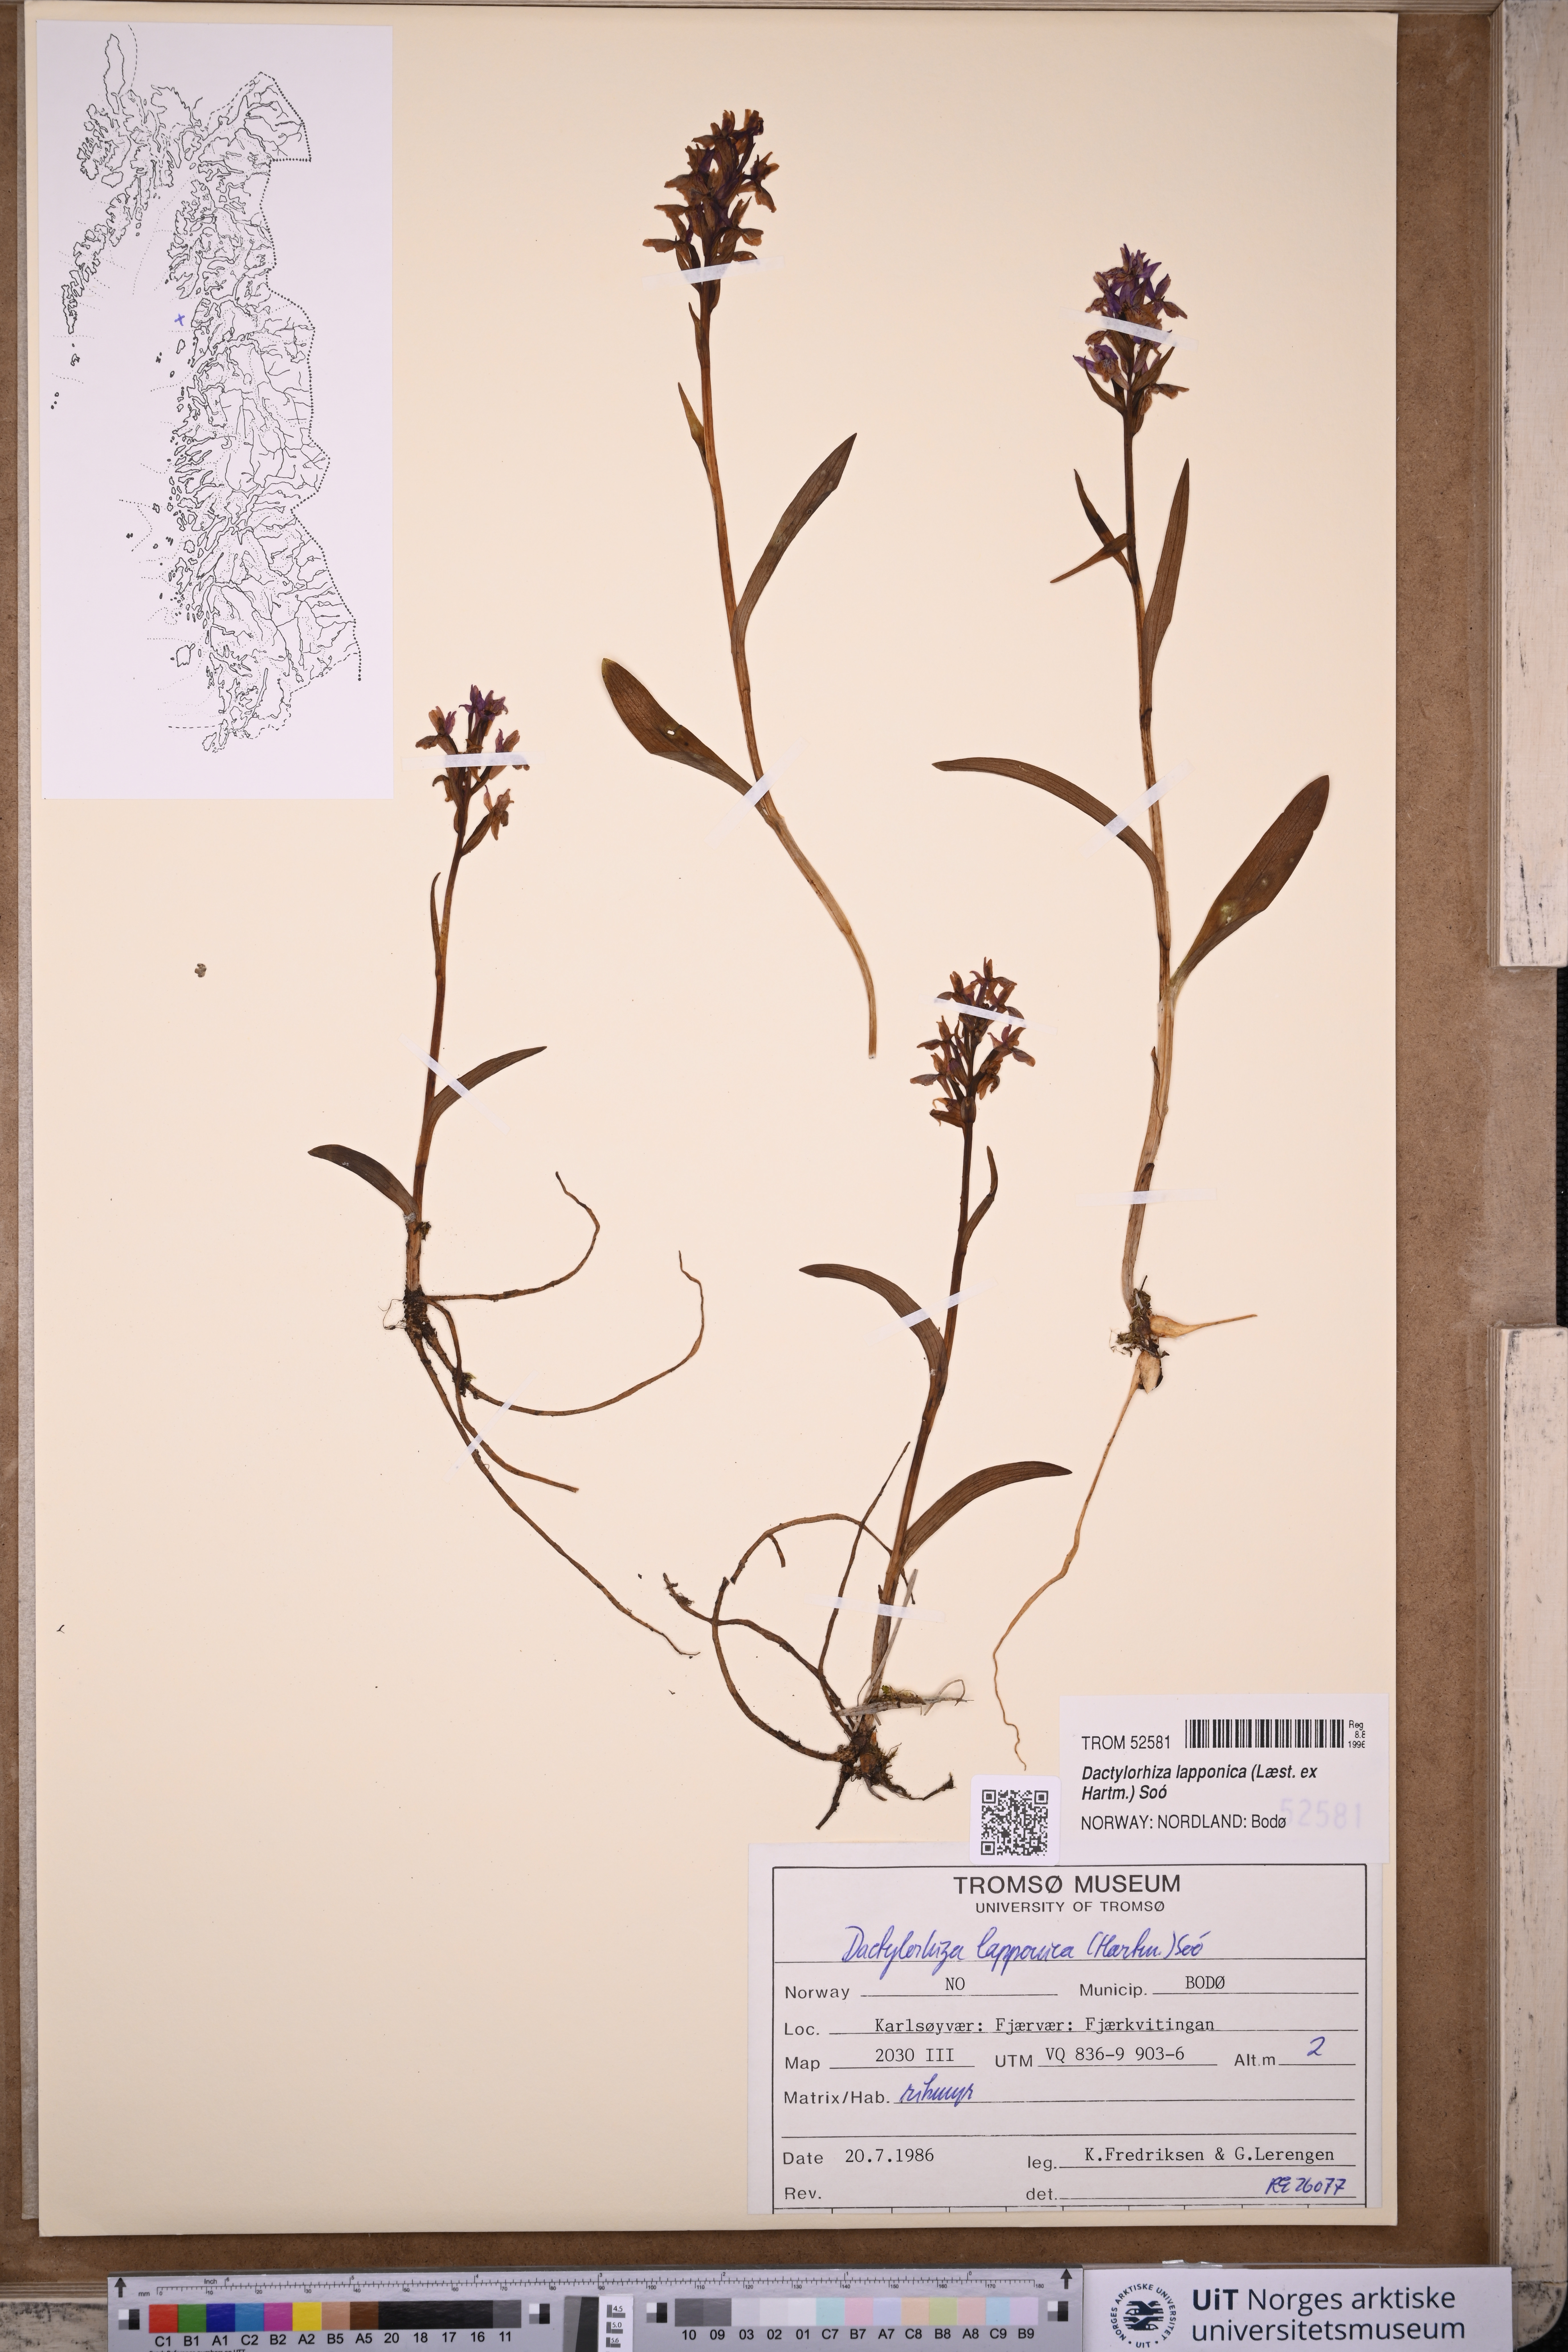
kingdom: Plantae
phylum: Tracheophyta
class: Liliopsida
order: Asparagales
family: Orchidaceae
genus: Dactylorhiza
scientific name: Dactylorhiza majalis
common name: Marsh orchid
